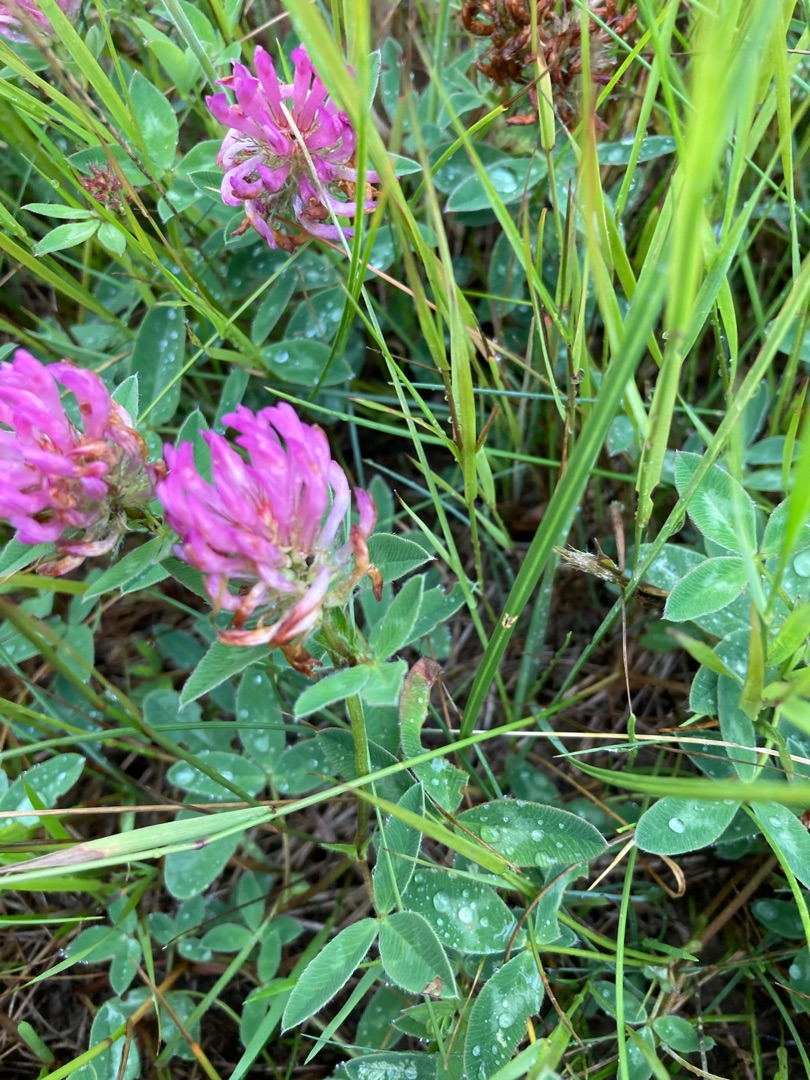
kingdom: Plantae
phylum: Tracheophyta
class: Magnoliopsida
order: Fabales
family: Fabaceae
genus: Trifolium
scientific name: Trifolium medium
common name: Bugtet kløver
